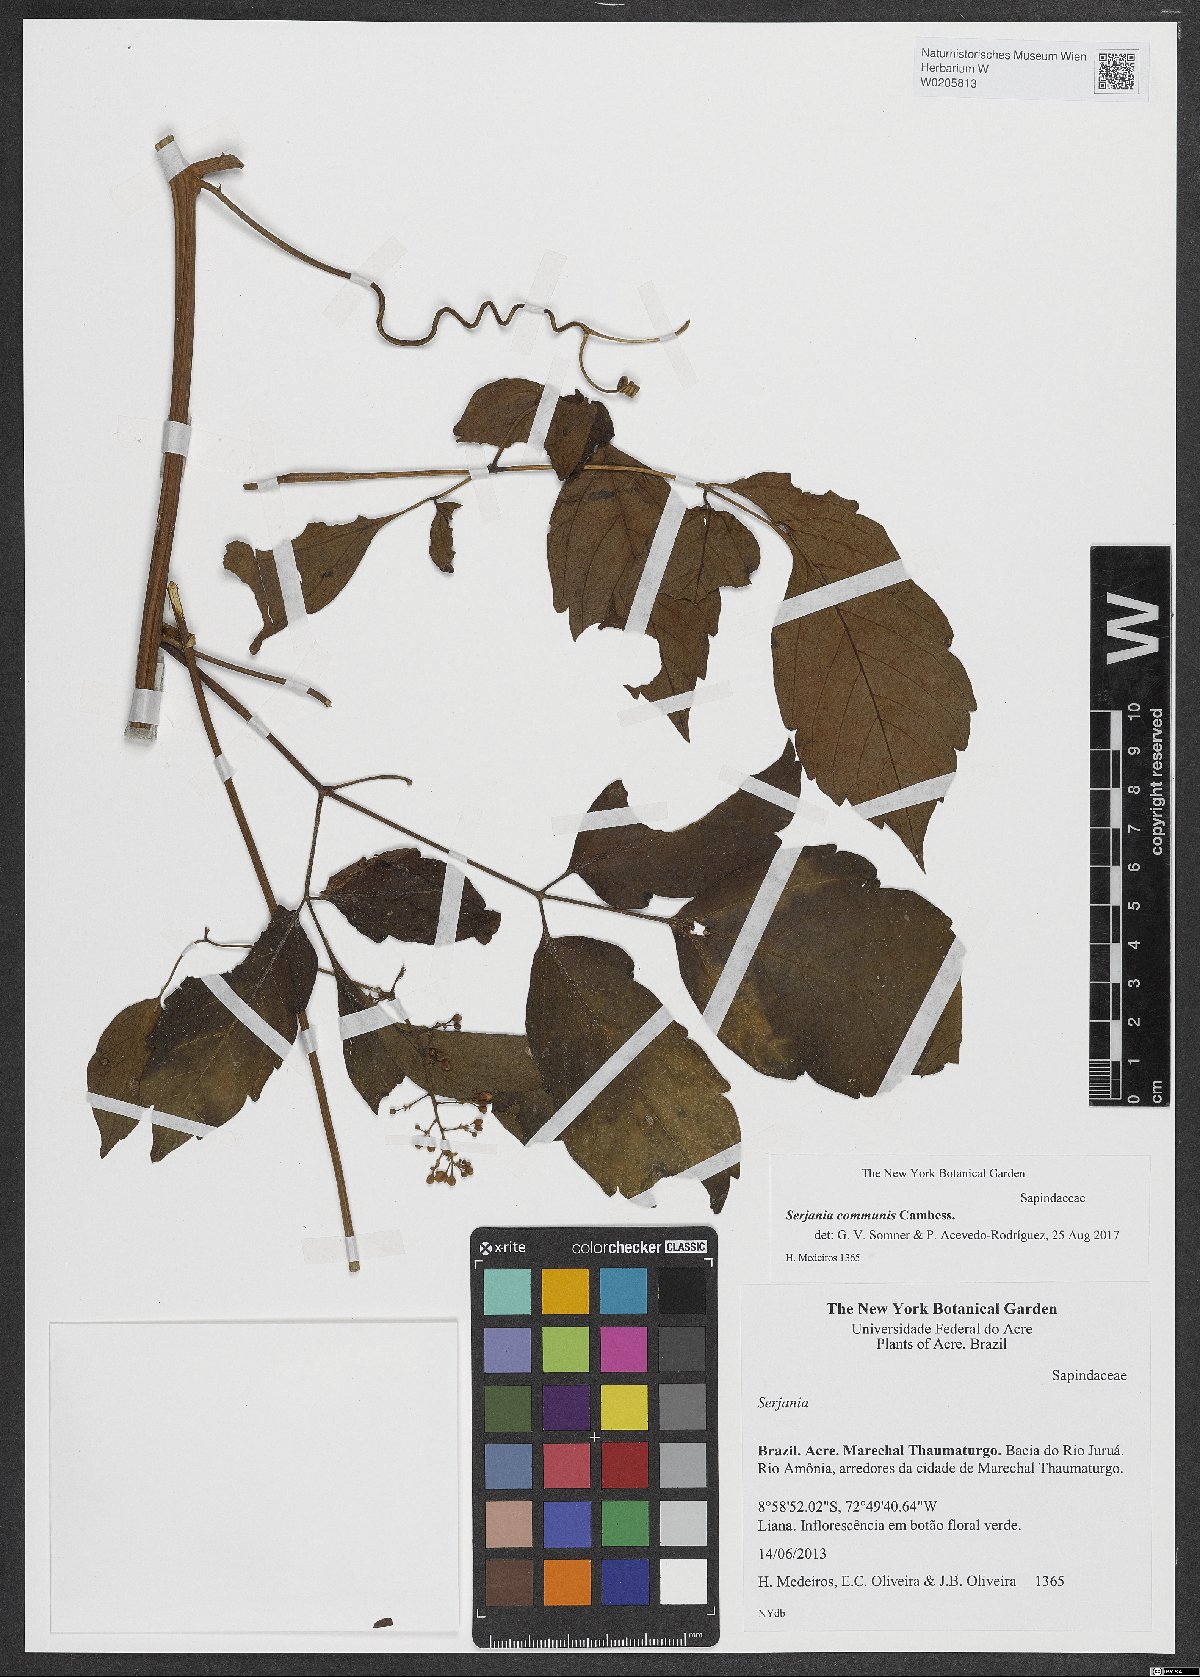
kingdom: Plantae
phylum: Tracheophyta
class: Magnoliopsida
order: Sapindales
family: Sapindaceae
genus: Serjania
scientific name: Serjania communis
